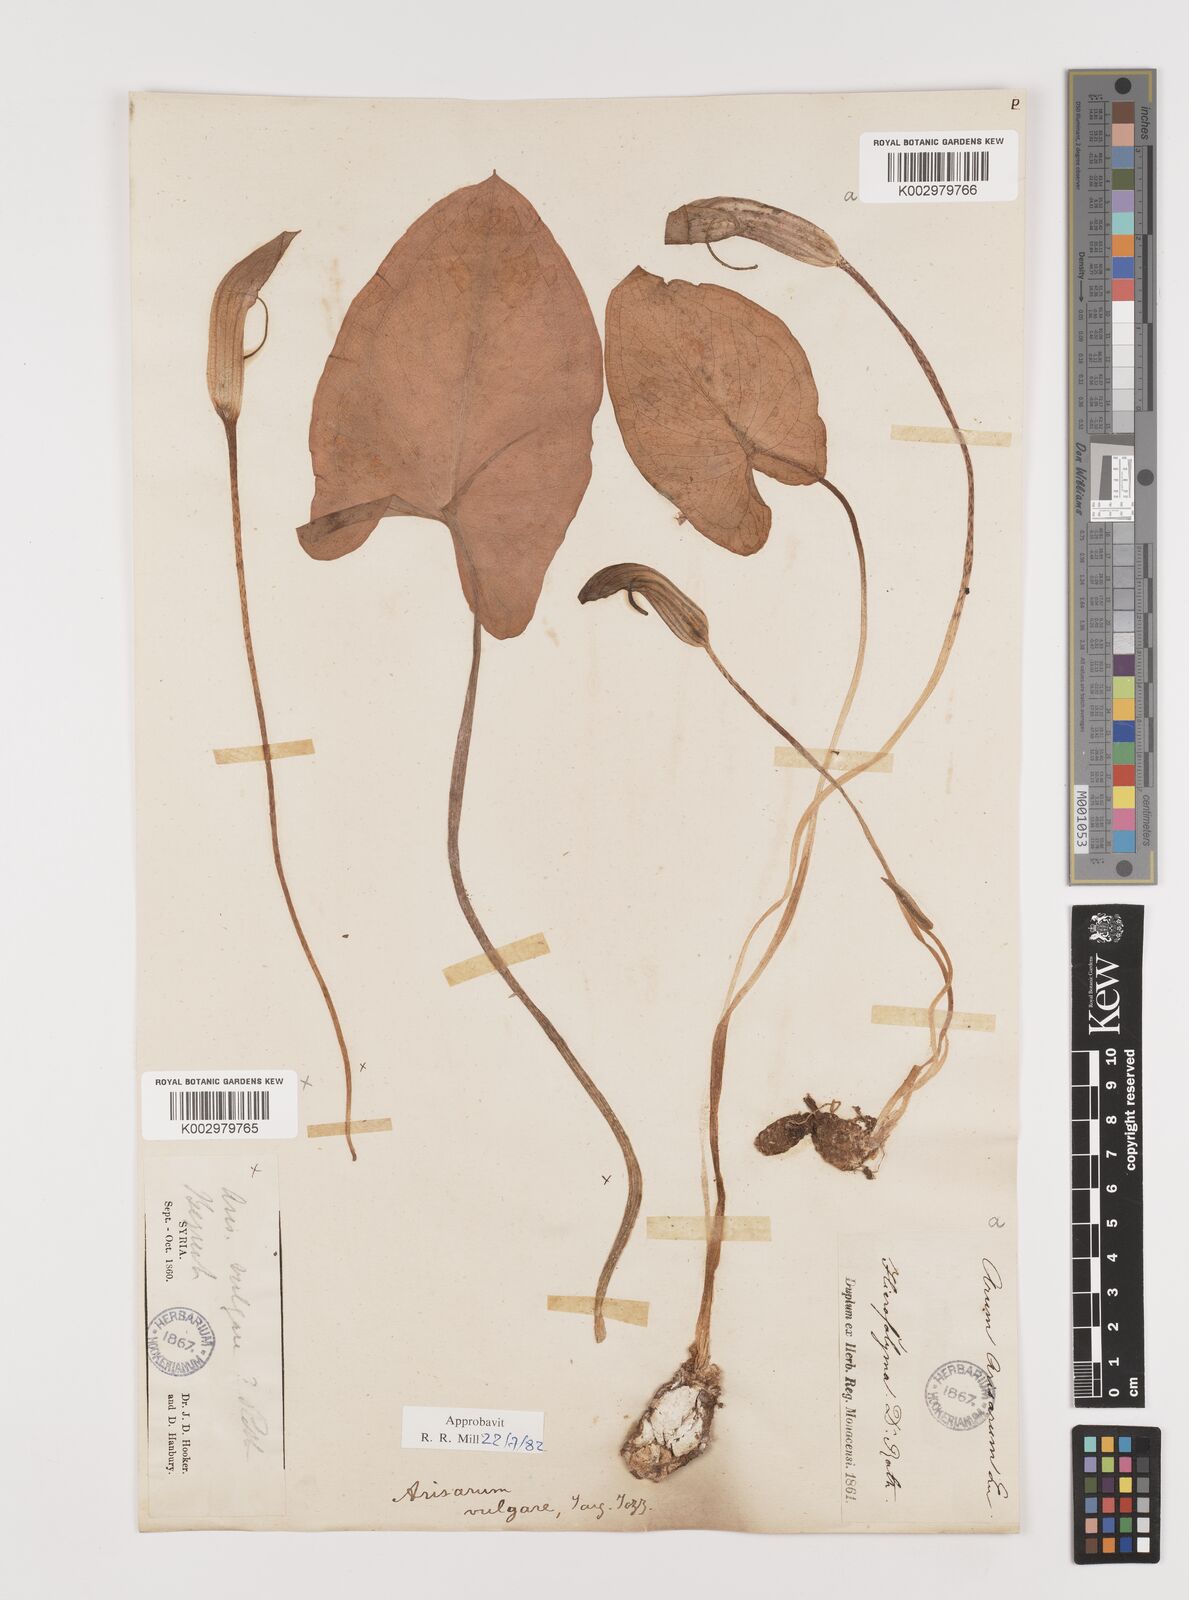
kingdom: Plantae
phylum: Tracheophyta
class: Liliopsida
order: Alismatales
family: Araceae
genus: Arisarum
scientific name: Arisarum vulgare
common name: Common arisarum
